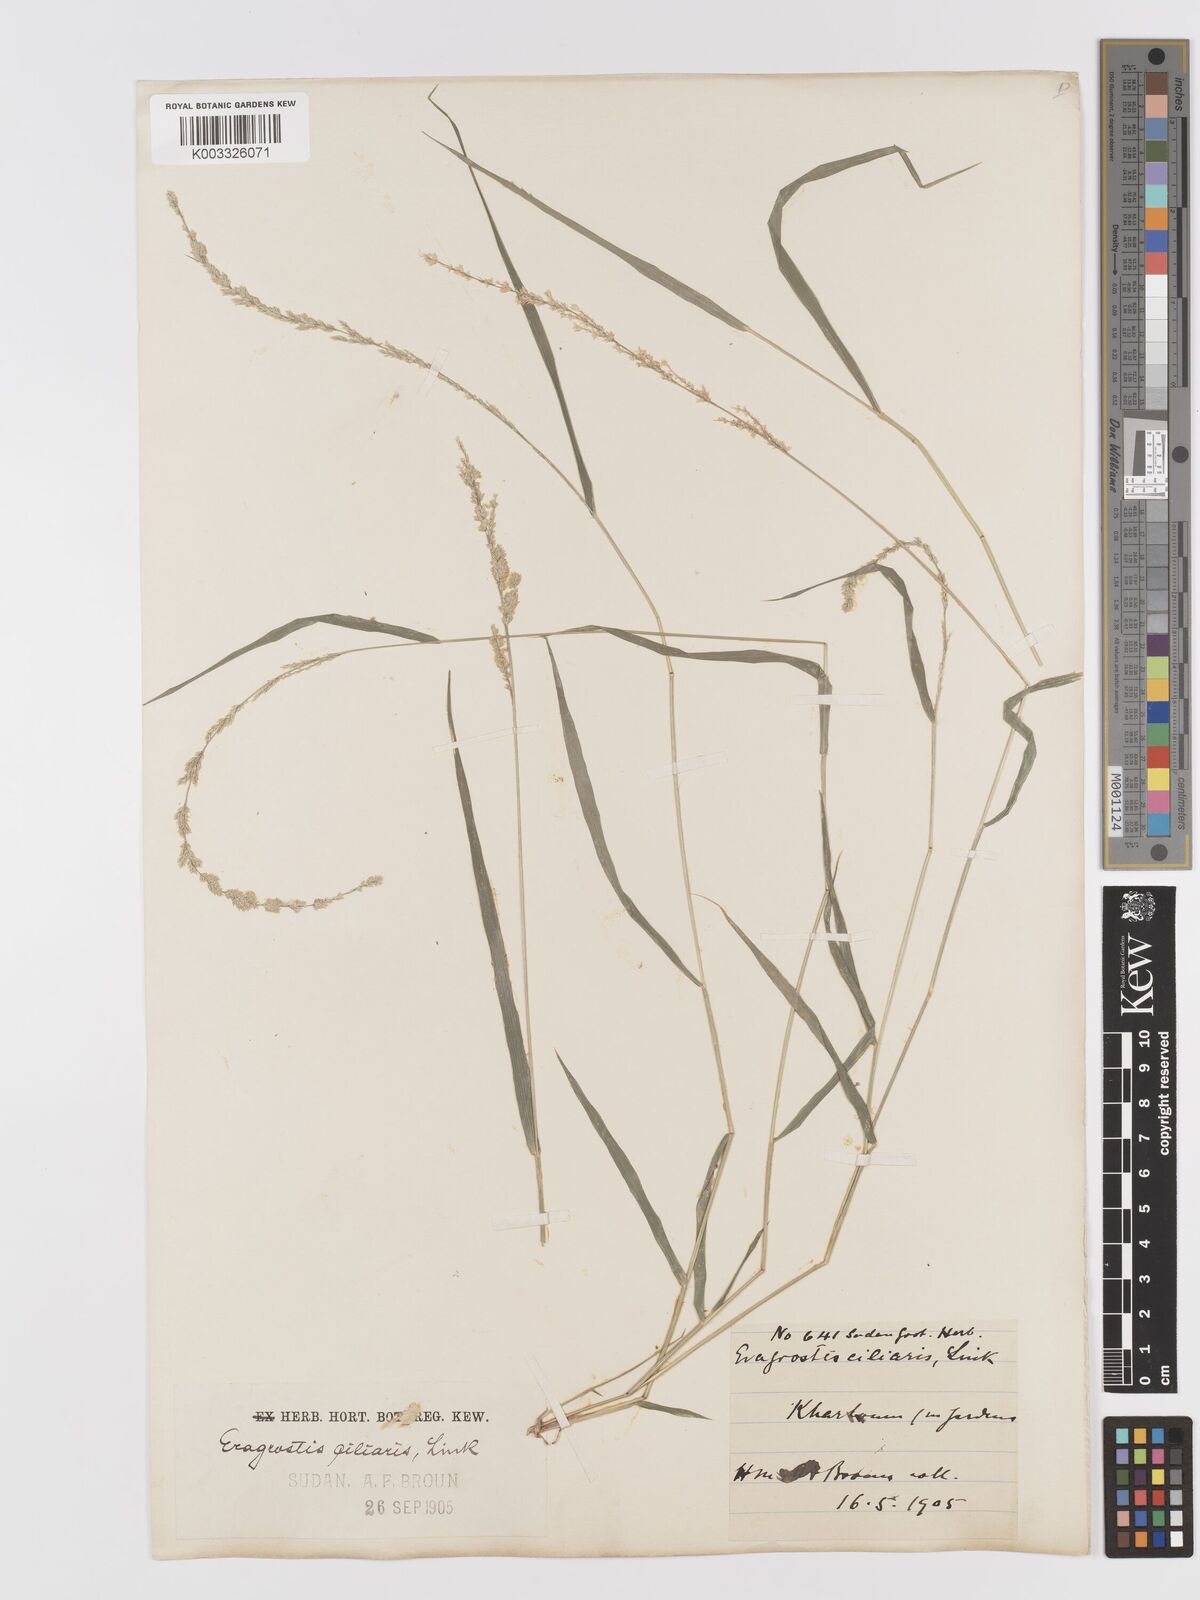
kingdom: Plantae
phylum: Tracheophyta
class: Liliopsida
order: Poales
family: Poaceae
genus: Eragrostis
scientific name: Eragrostis ciliaris
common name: Gophertail lovegrass
